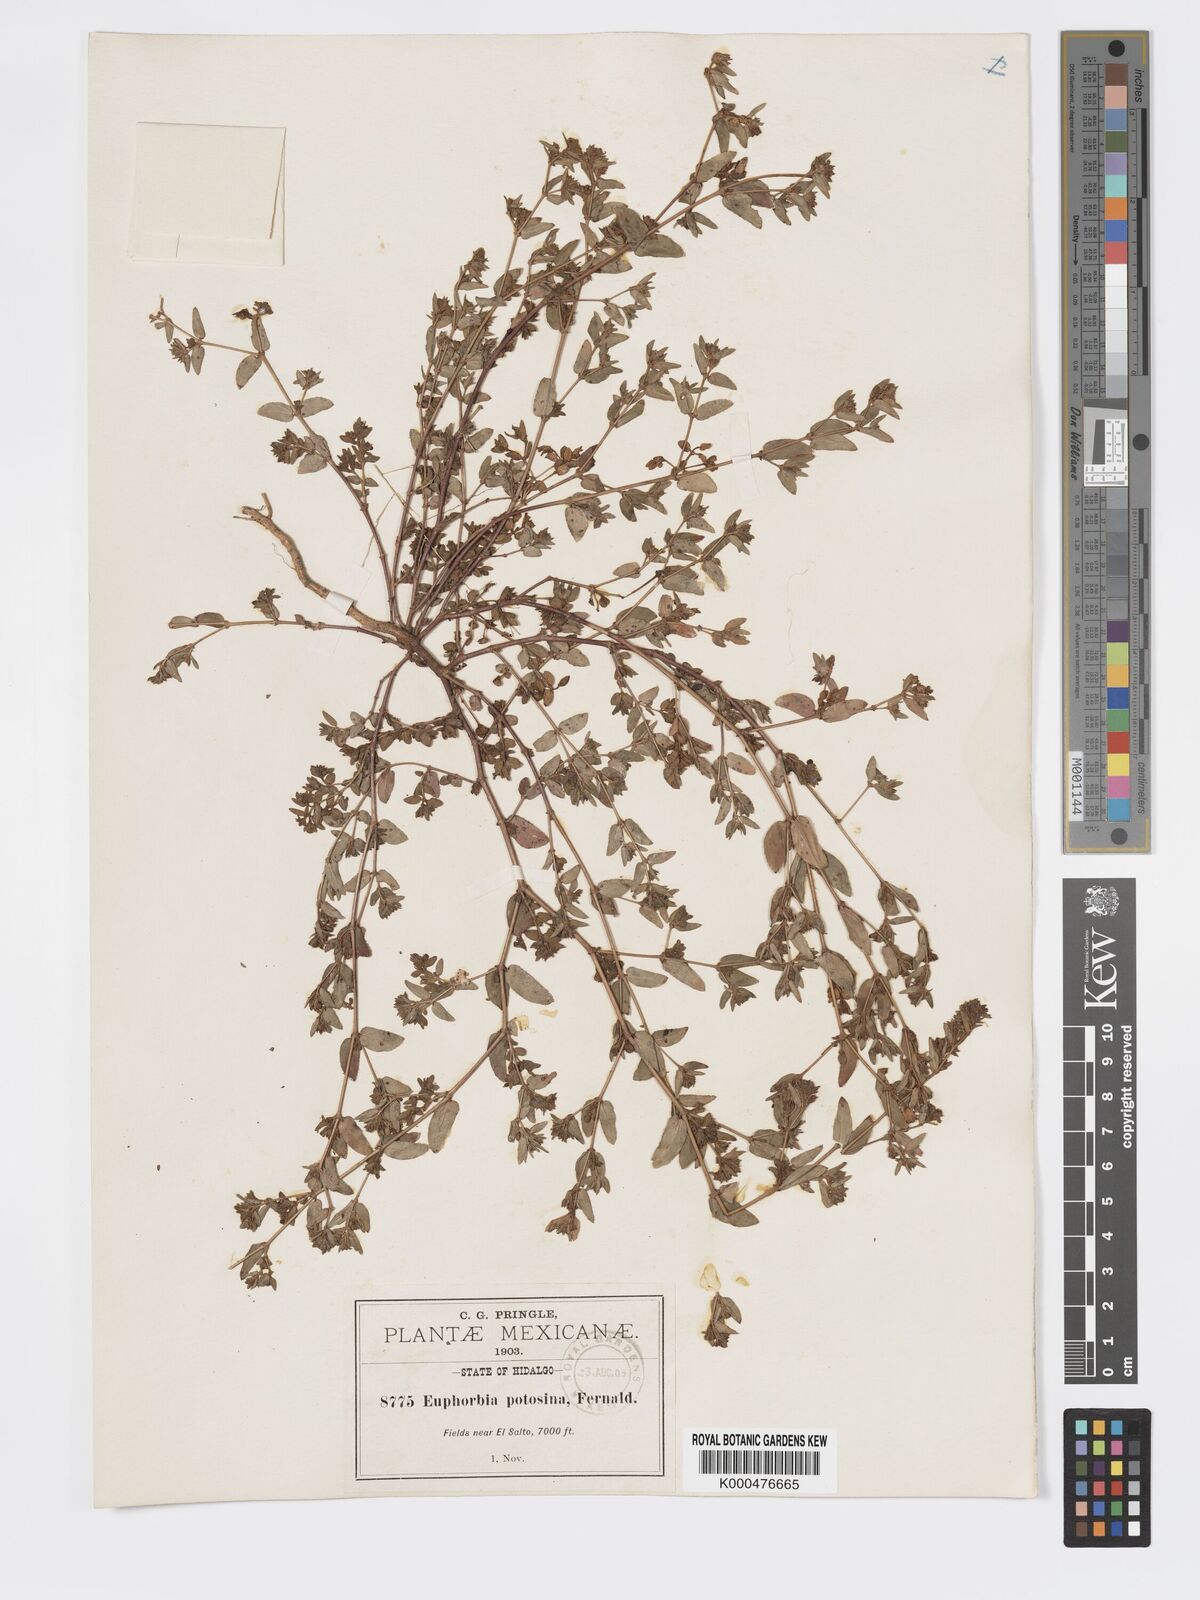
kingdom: Plantae
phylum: Tracheophyta
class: Magnoliopsida
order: Malpighiales
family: Euphorbiaceae
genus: Euphorbia
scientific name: Euphorbia potosina
